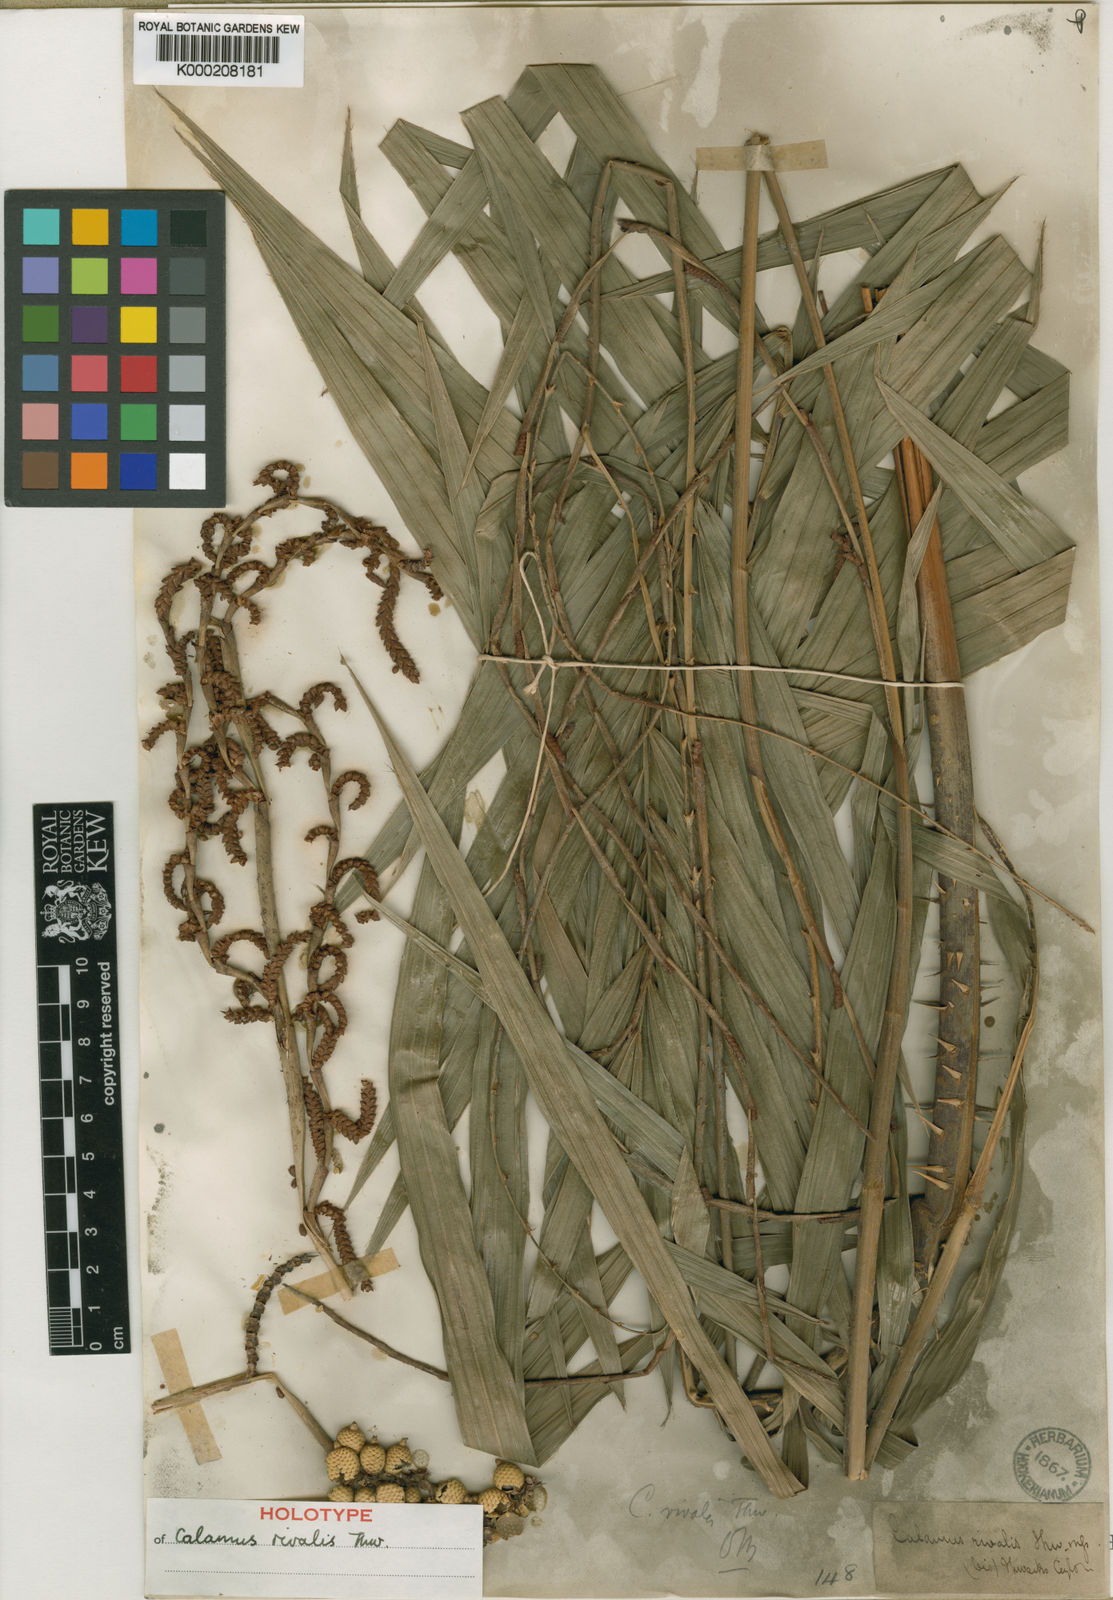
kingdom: Plantae
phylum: Tracheophyta
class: Liliopsida
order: Arecales
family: Arecaceae
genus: Calamus
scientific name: Calamus metzianus
